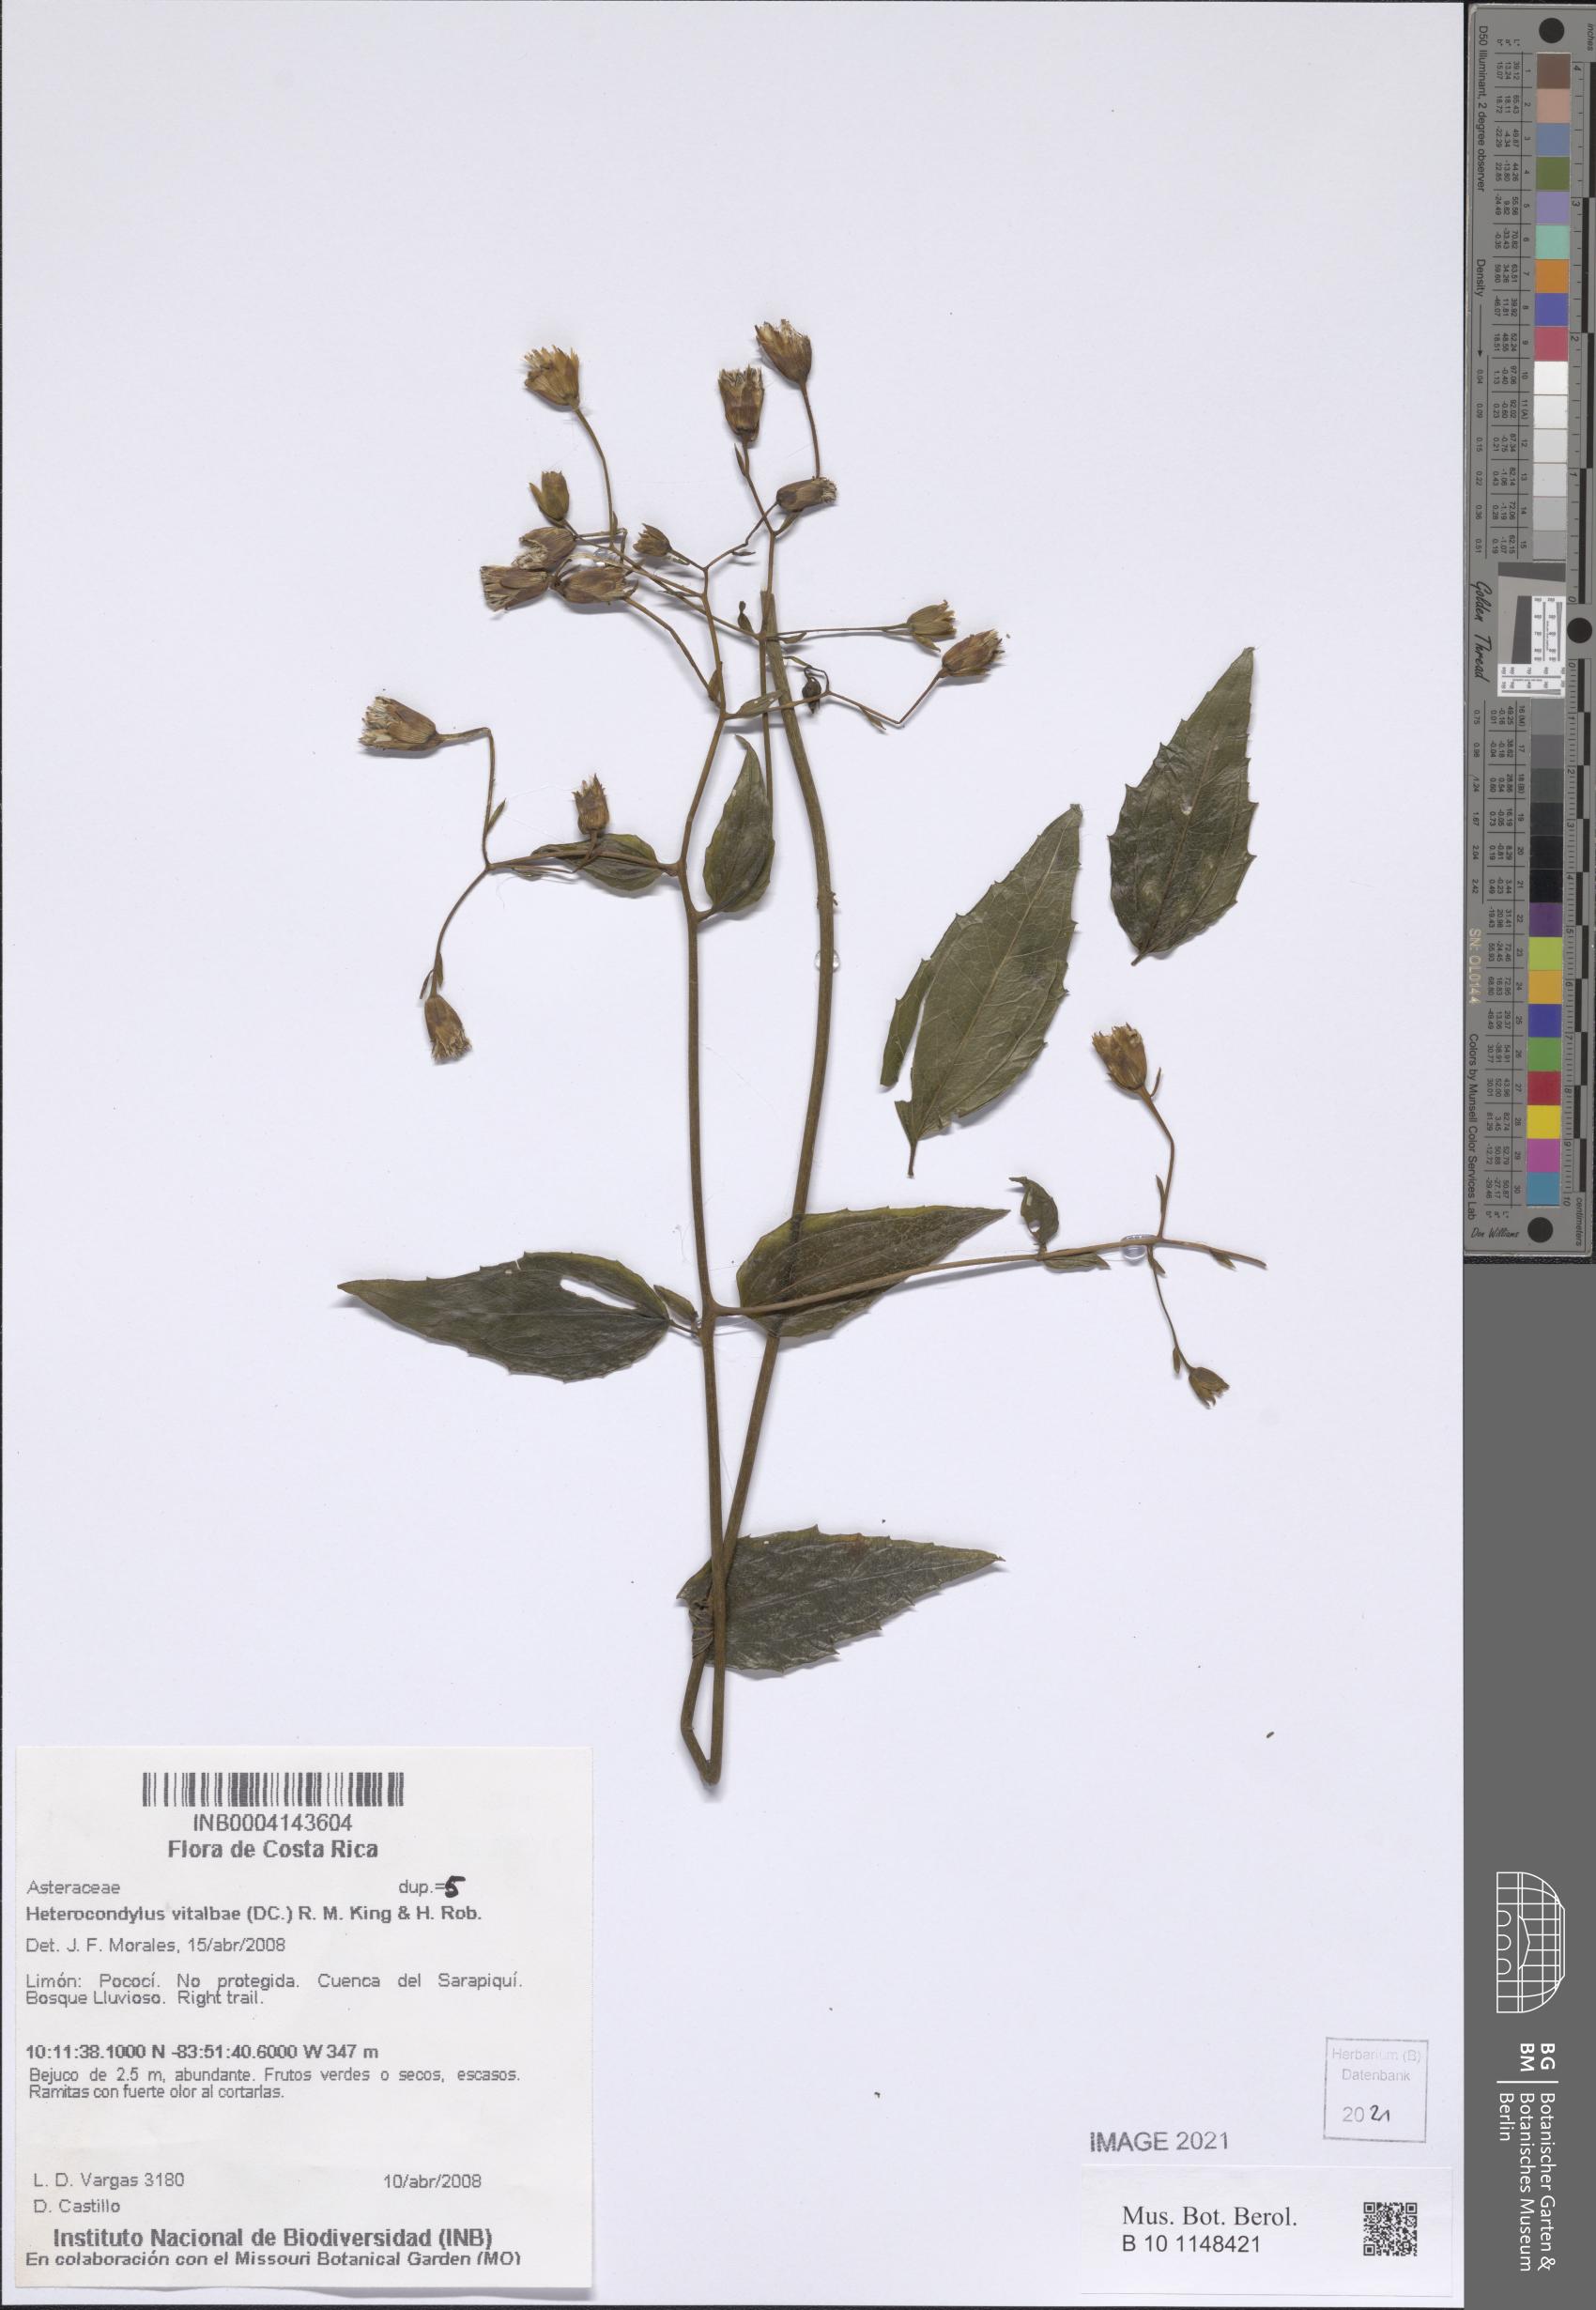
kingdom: Plantae
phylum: Tracheophyta
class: Magnoliopsida
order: Asterales
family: Asteraceae
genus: Heterocondylus
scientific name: Heterocondylus vitalbae
